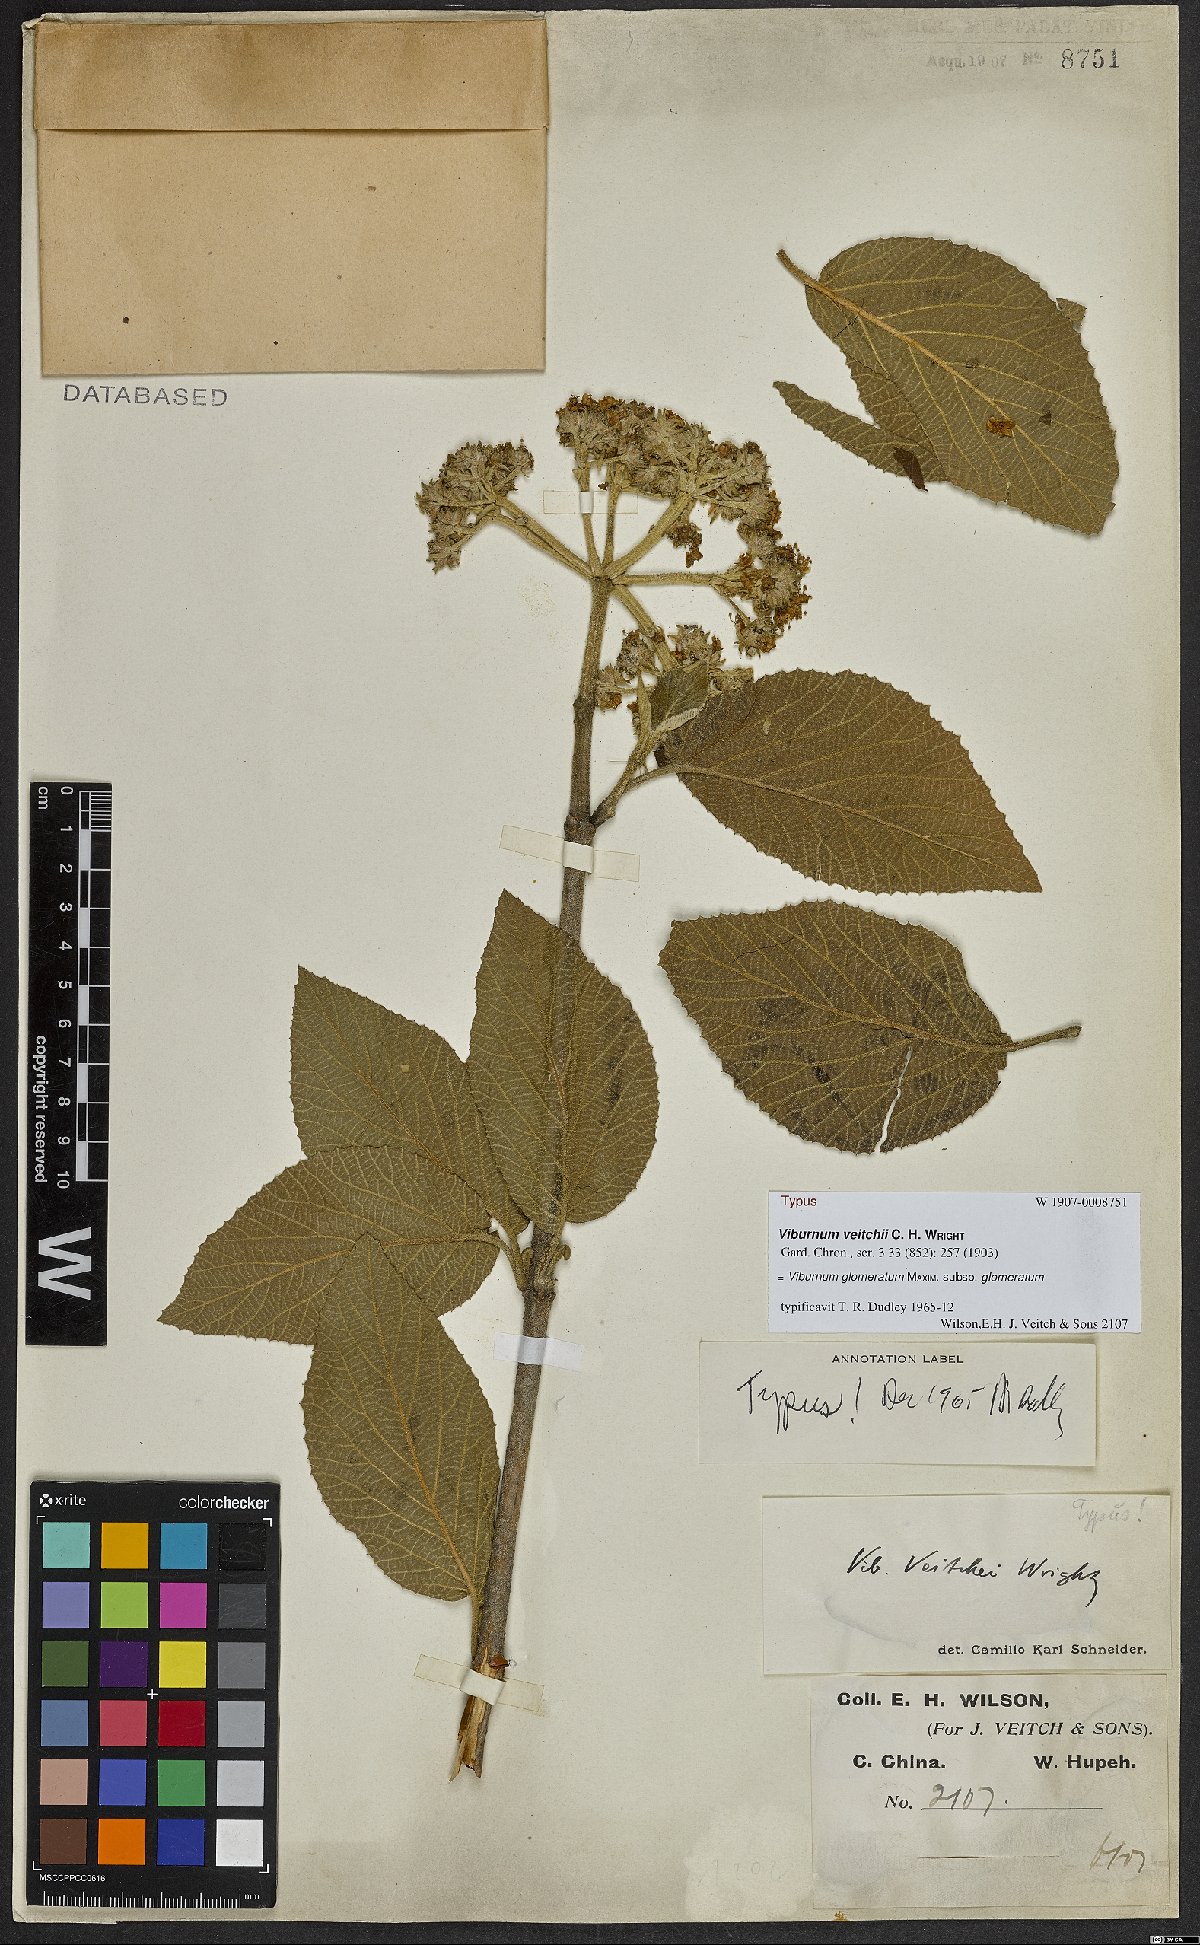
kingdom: Plantae
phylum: Tracheophyta
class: Magnoliopsida
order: Dipsacales
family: Viburnaceae
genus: Viburnum
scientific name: Viburnum glomeratum
